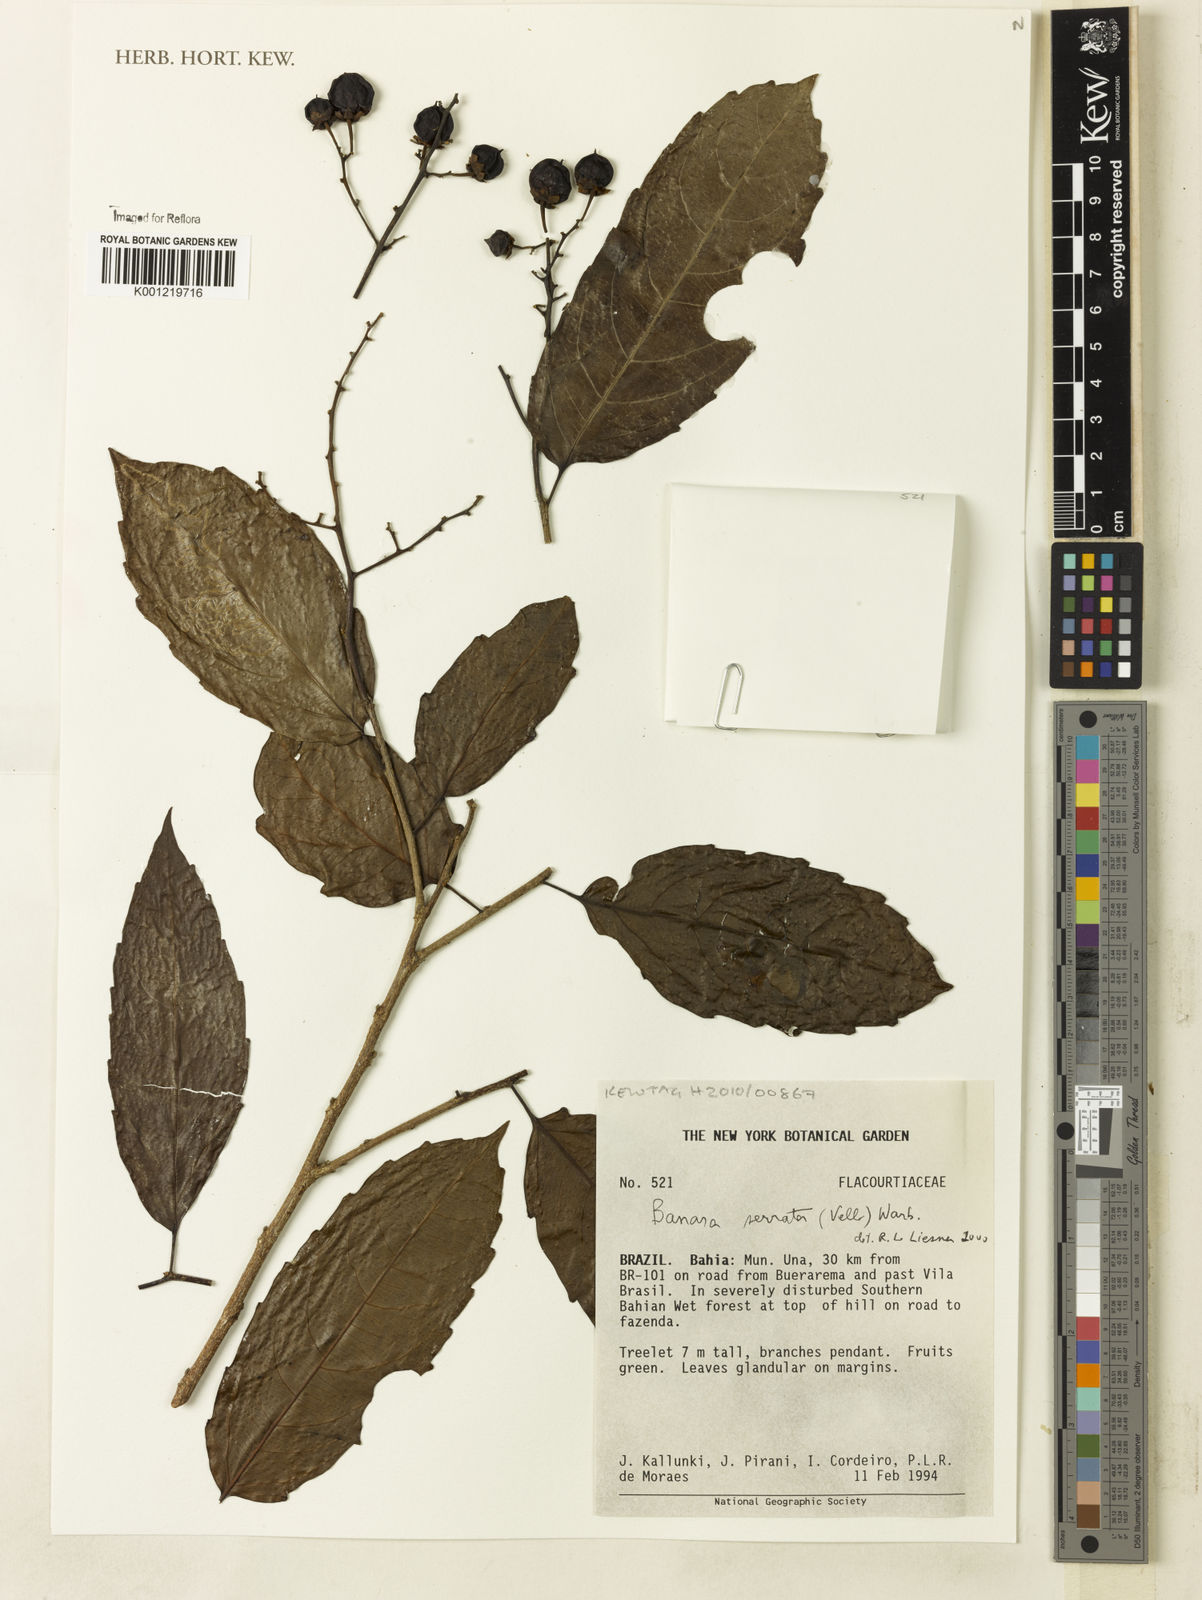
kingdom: Plantae
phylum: Tracheophyta
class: Magnoliopsida
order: Malpighiales
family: Salicaceae
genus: Banara
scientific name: Banara serrata
